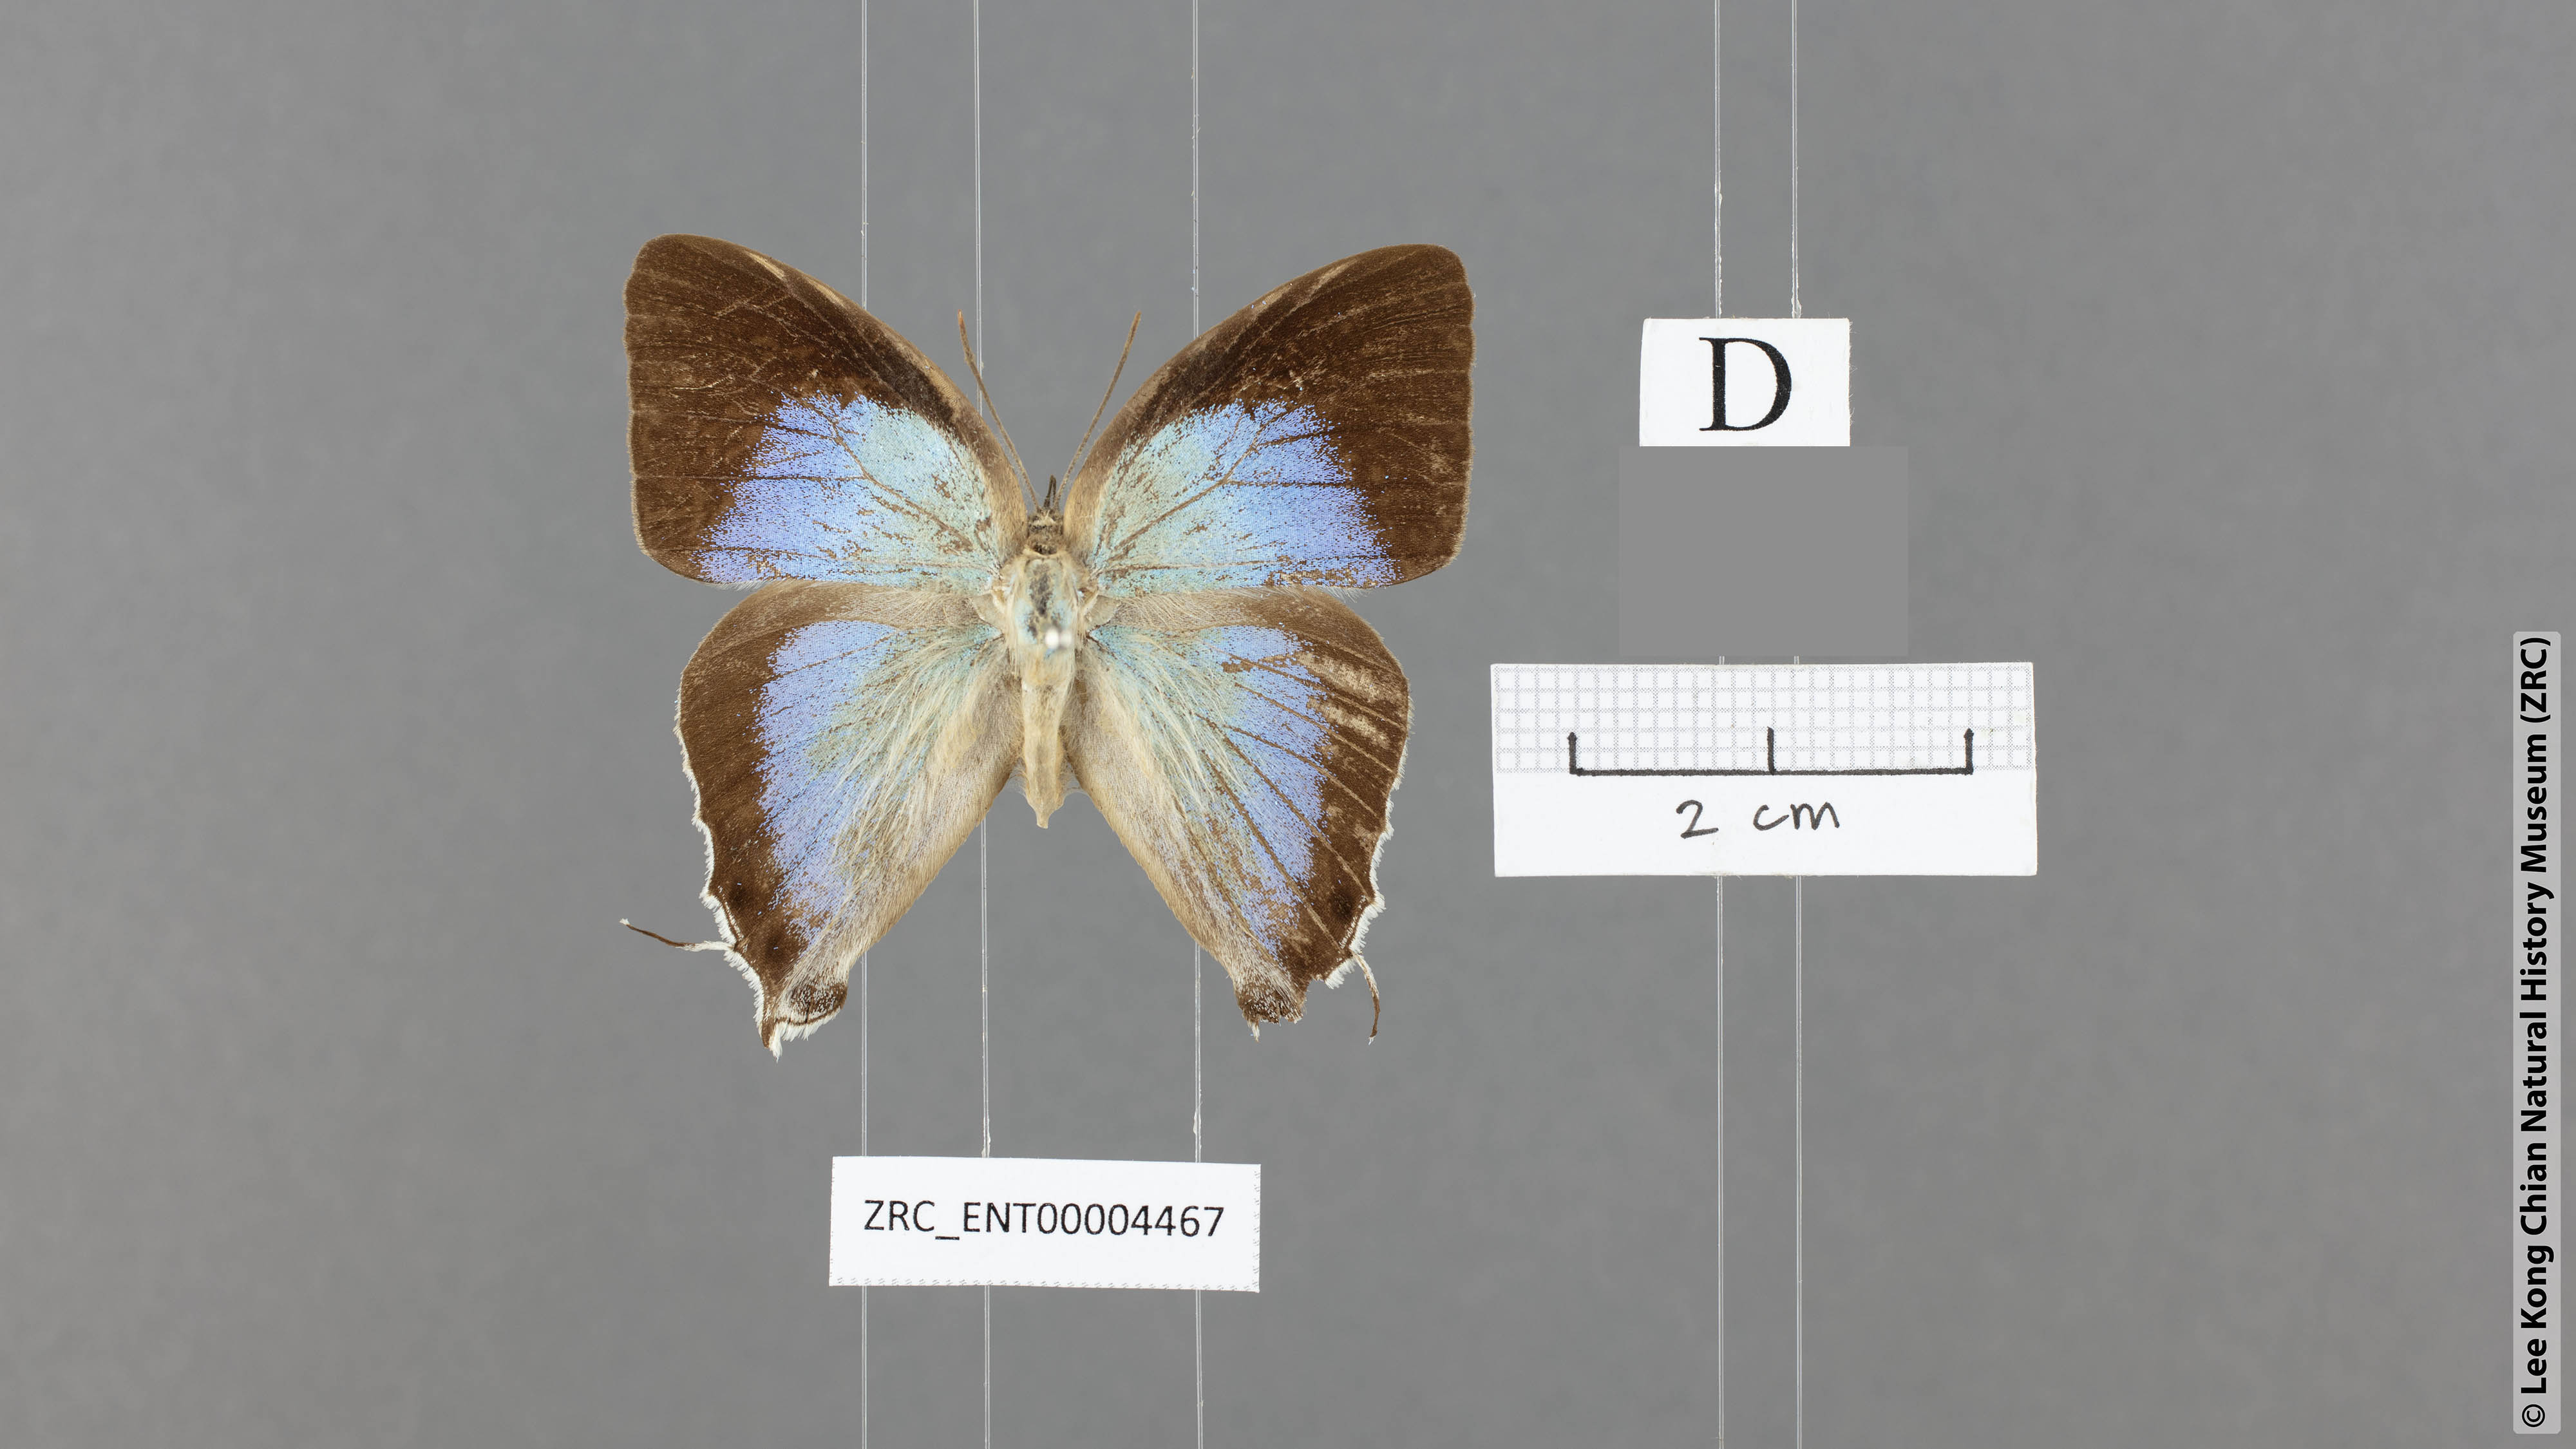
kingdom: Animalia
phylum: Arthropoda
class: Insecta
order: Lepidoptera
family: Lycaenidae
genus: Purlisa
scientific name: Purlisa giganteus
